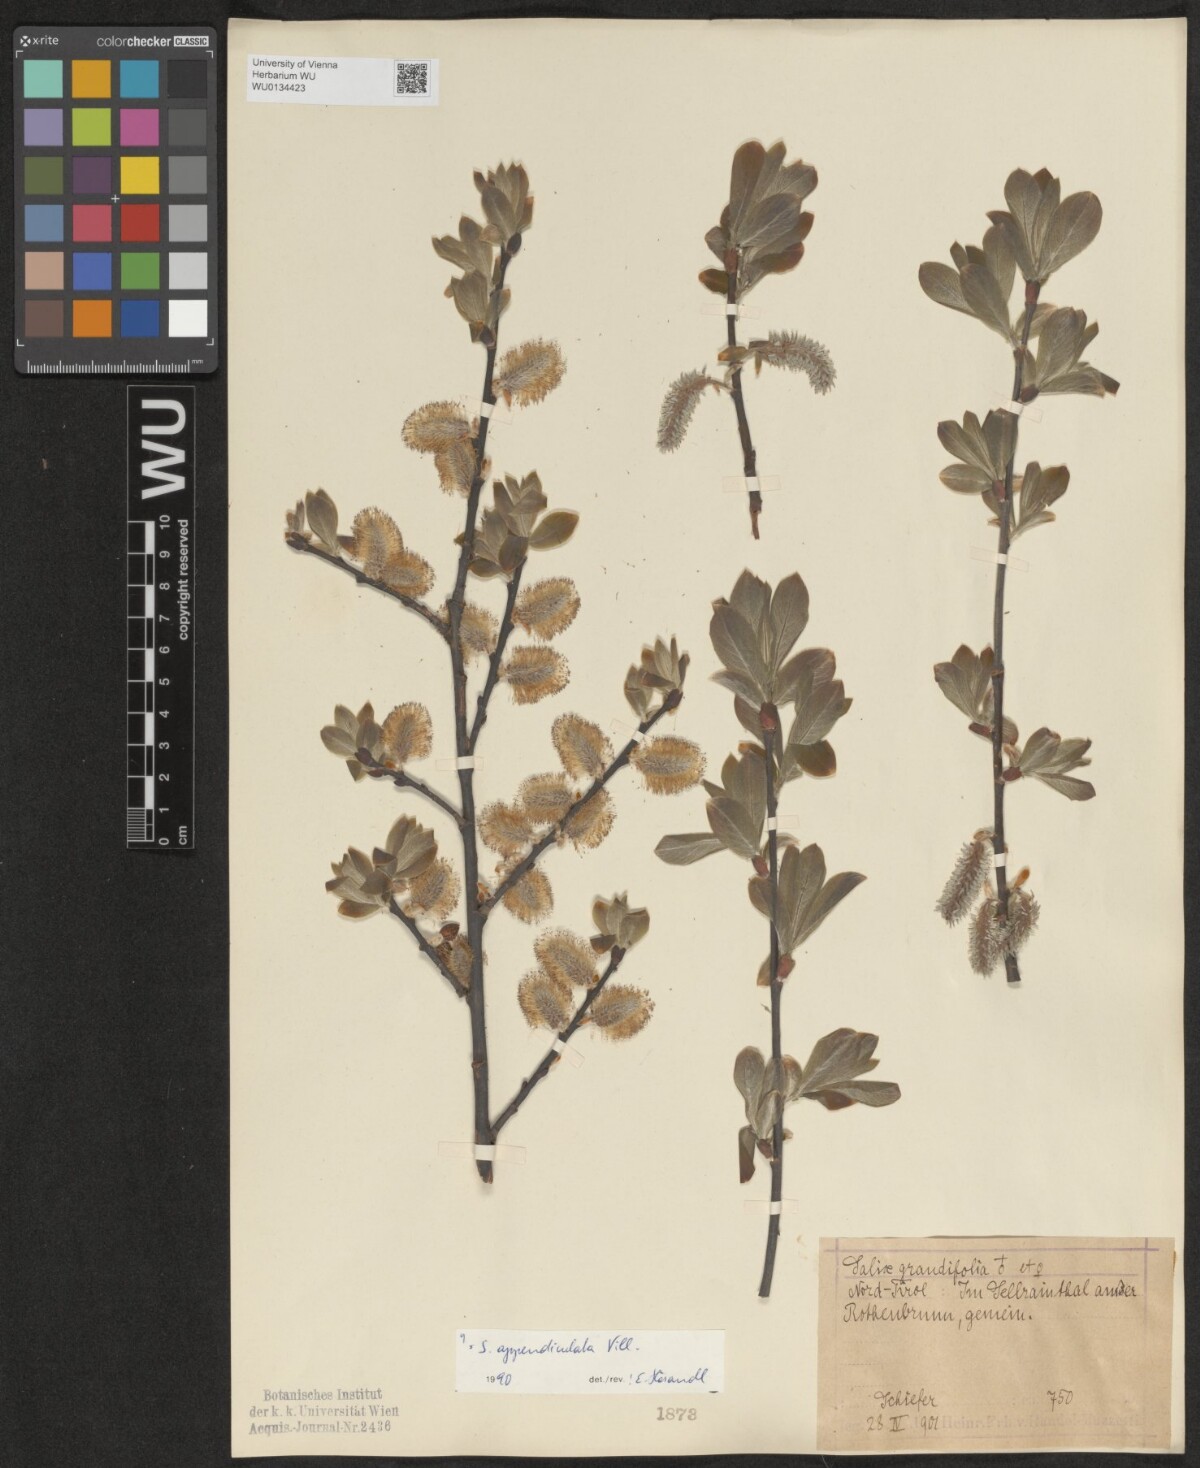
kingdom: Plantae
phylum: Tracheophyta
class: Magnoliopsida
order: Malpighiales
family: Salicaceae
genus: Salix
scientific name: Salix appendiculata
